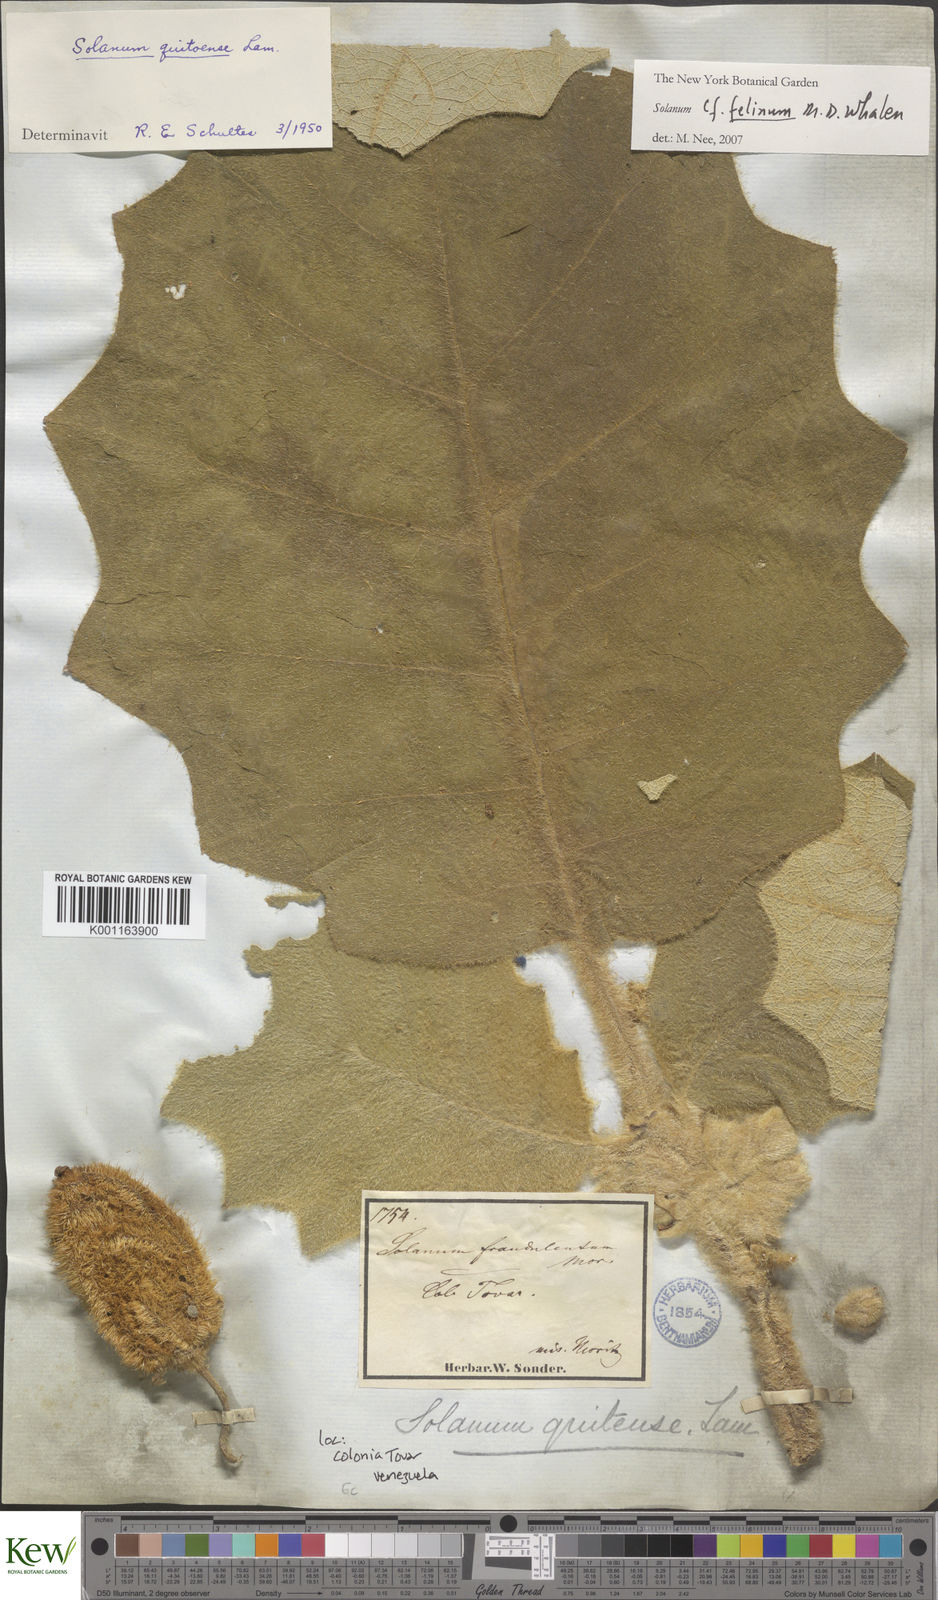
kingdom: Plantae
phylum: Tracheophyta
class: Magnoliopsida
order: Solanales
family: Solanaceae
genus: Solanum
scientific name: Solanum felinum
